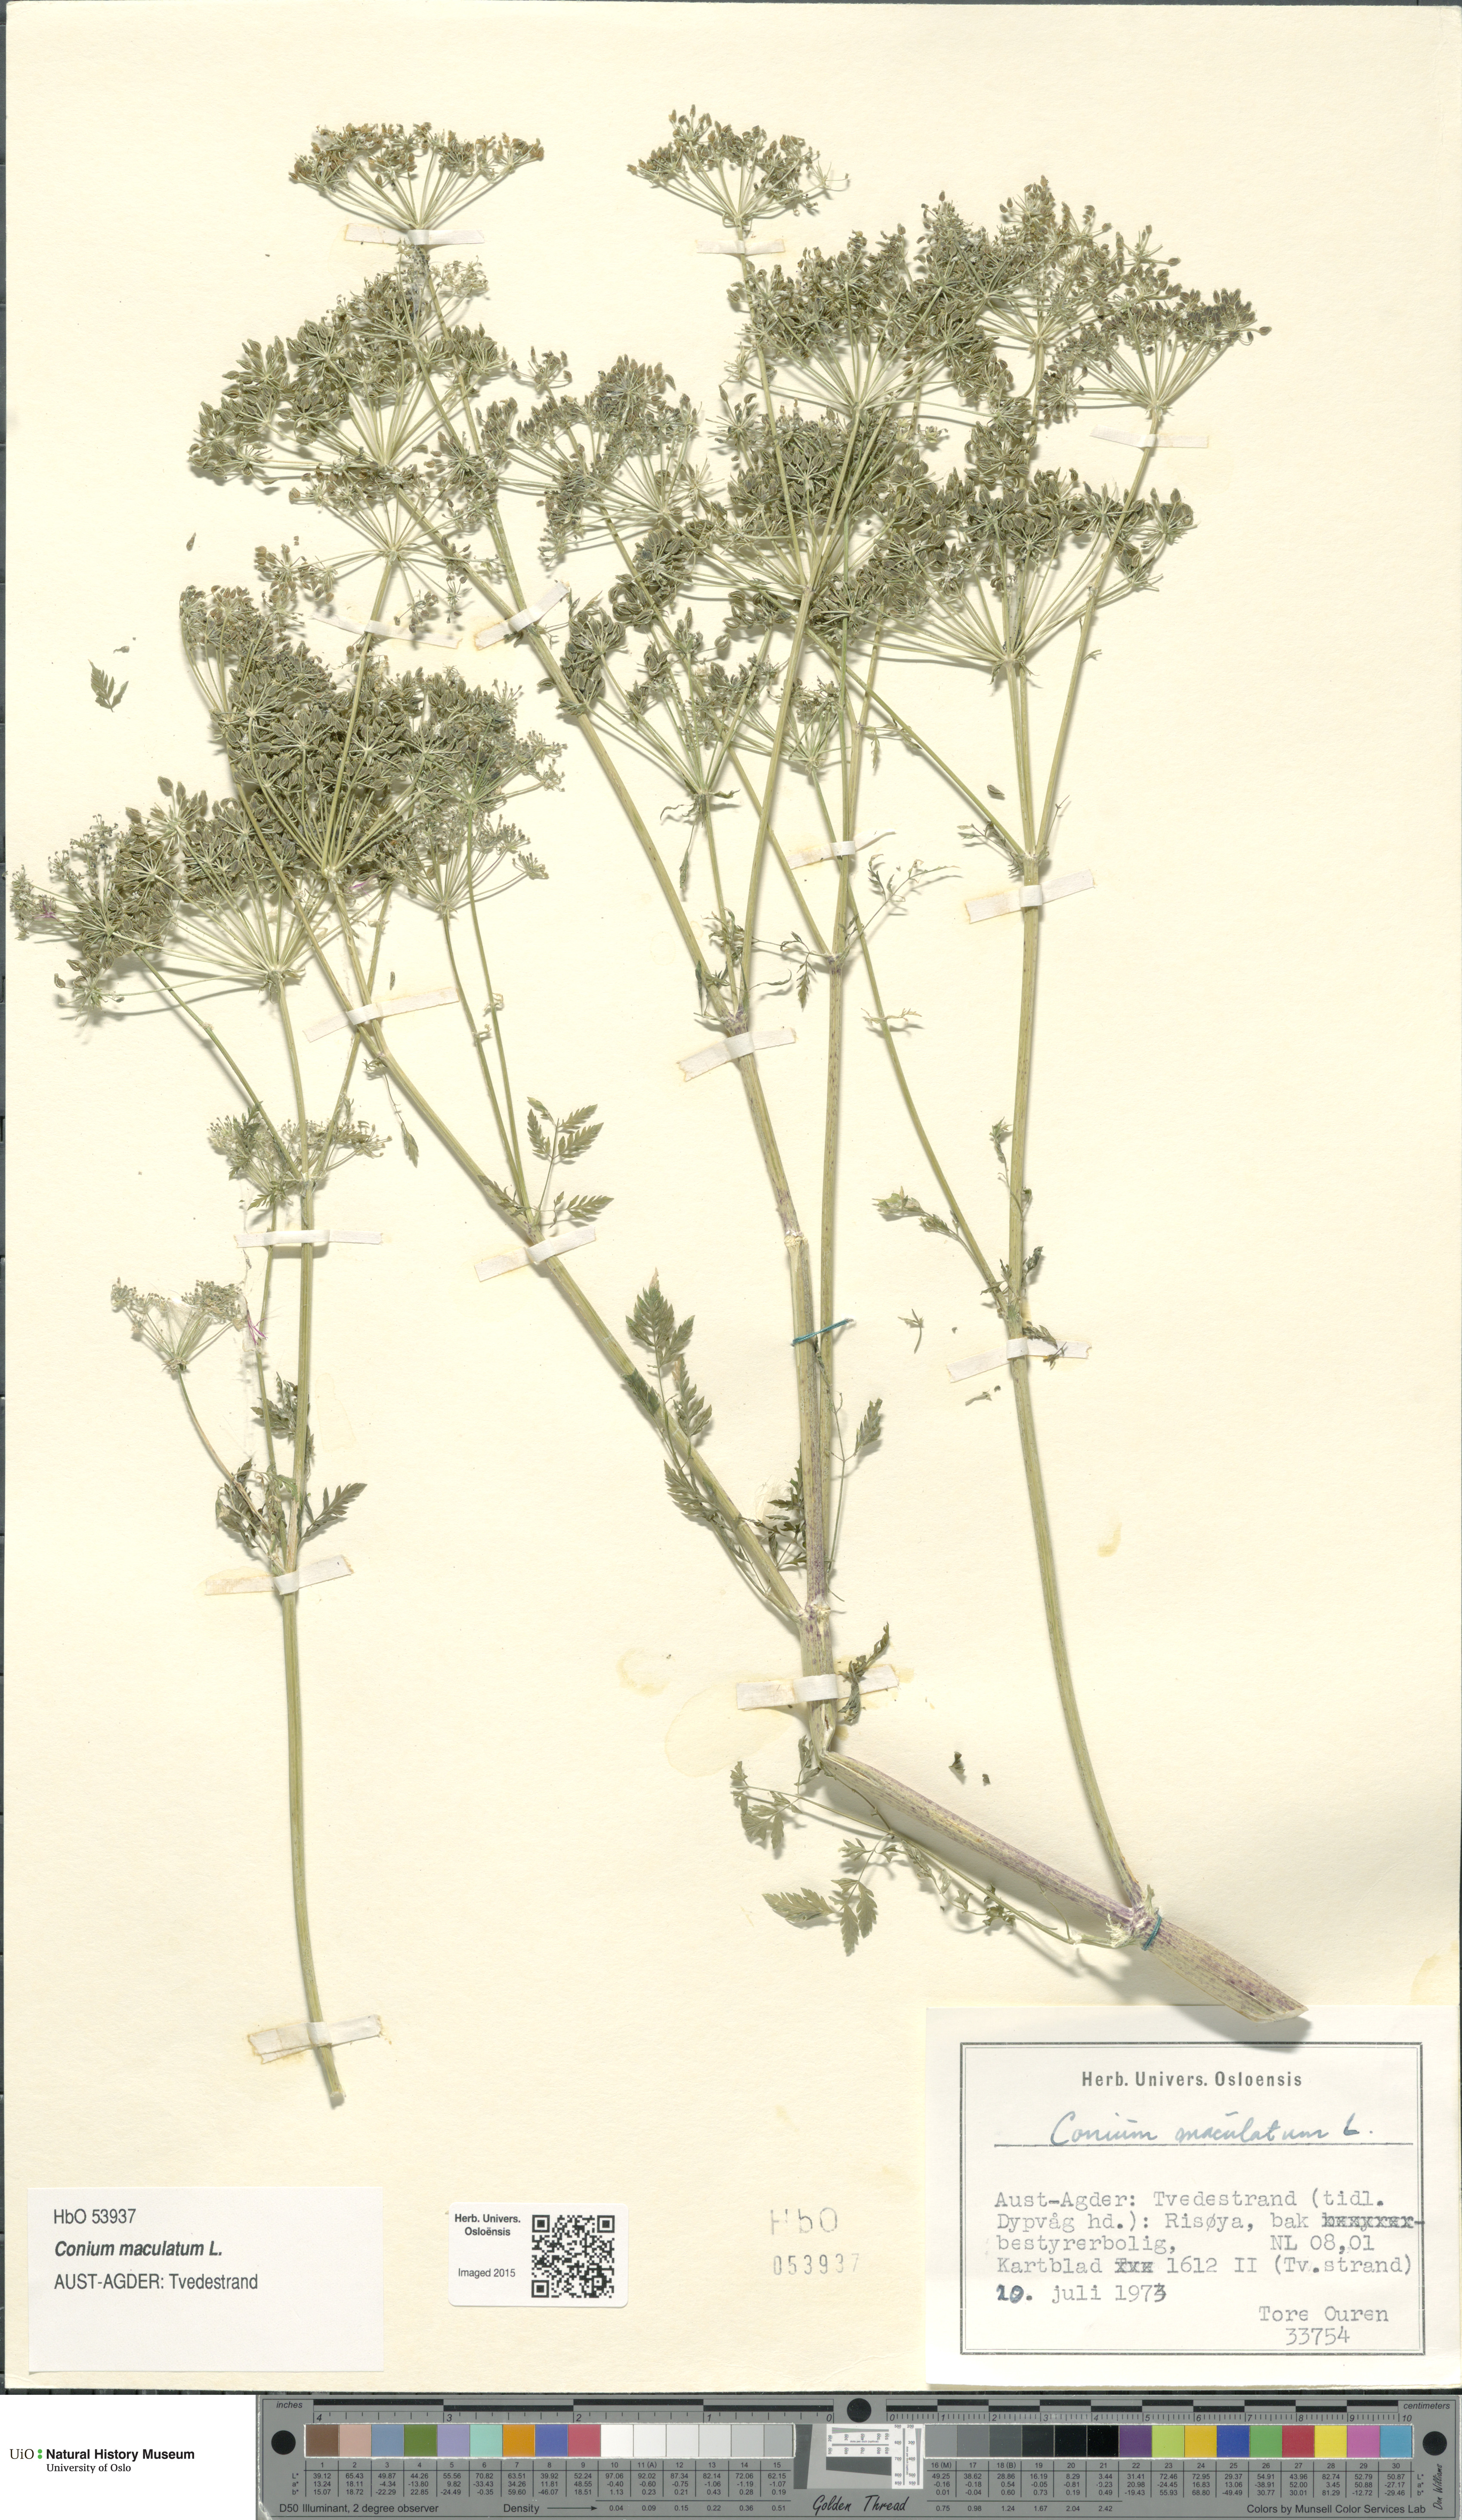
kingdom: Plantae
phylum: Tracheophyta
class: Magnoliopsida
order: Apiales
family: Apiaceae
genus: Conium
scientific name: Conium maculatum
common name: Hemlock
